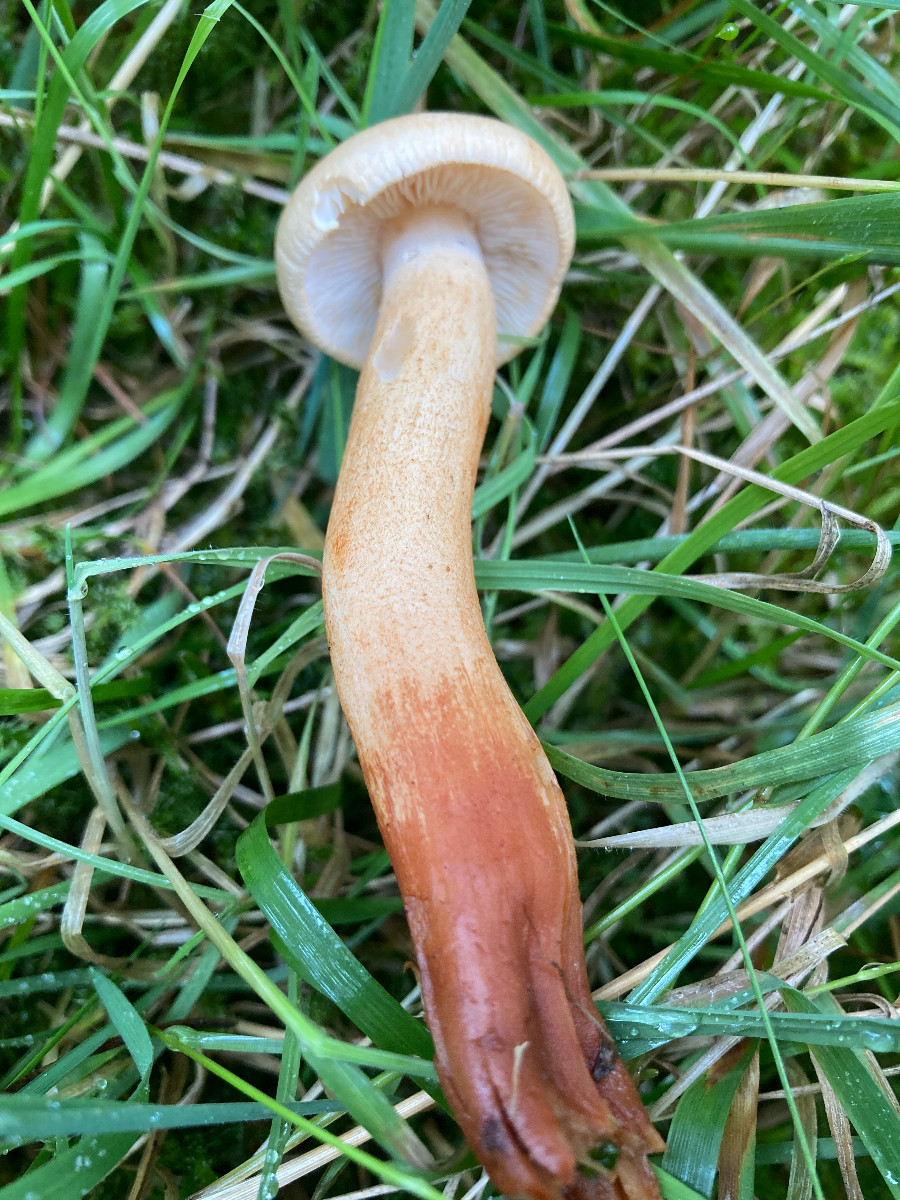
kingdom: Fungi
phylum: Basidiomycota
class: Agaricomycetes
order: Agaricales
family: Tricholomataceae
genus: Tricholoma
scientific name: Tricholoma psammopus
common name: grynstokket ridderhat
